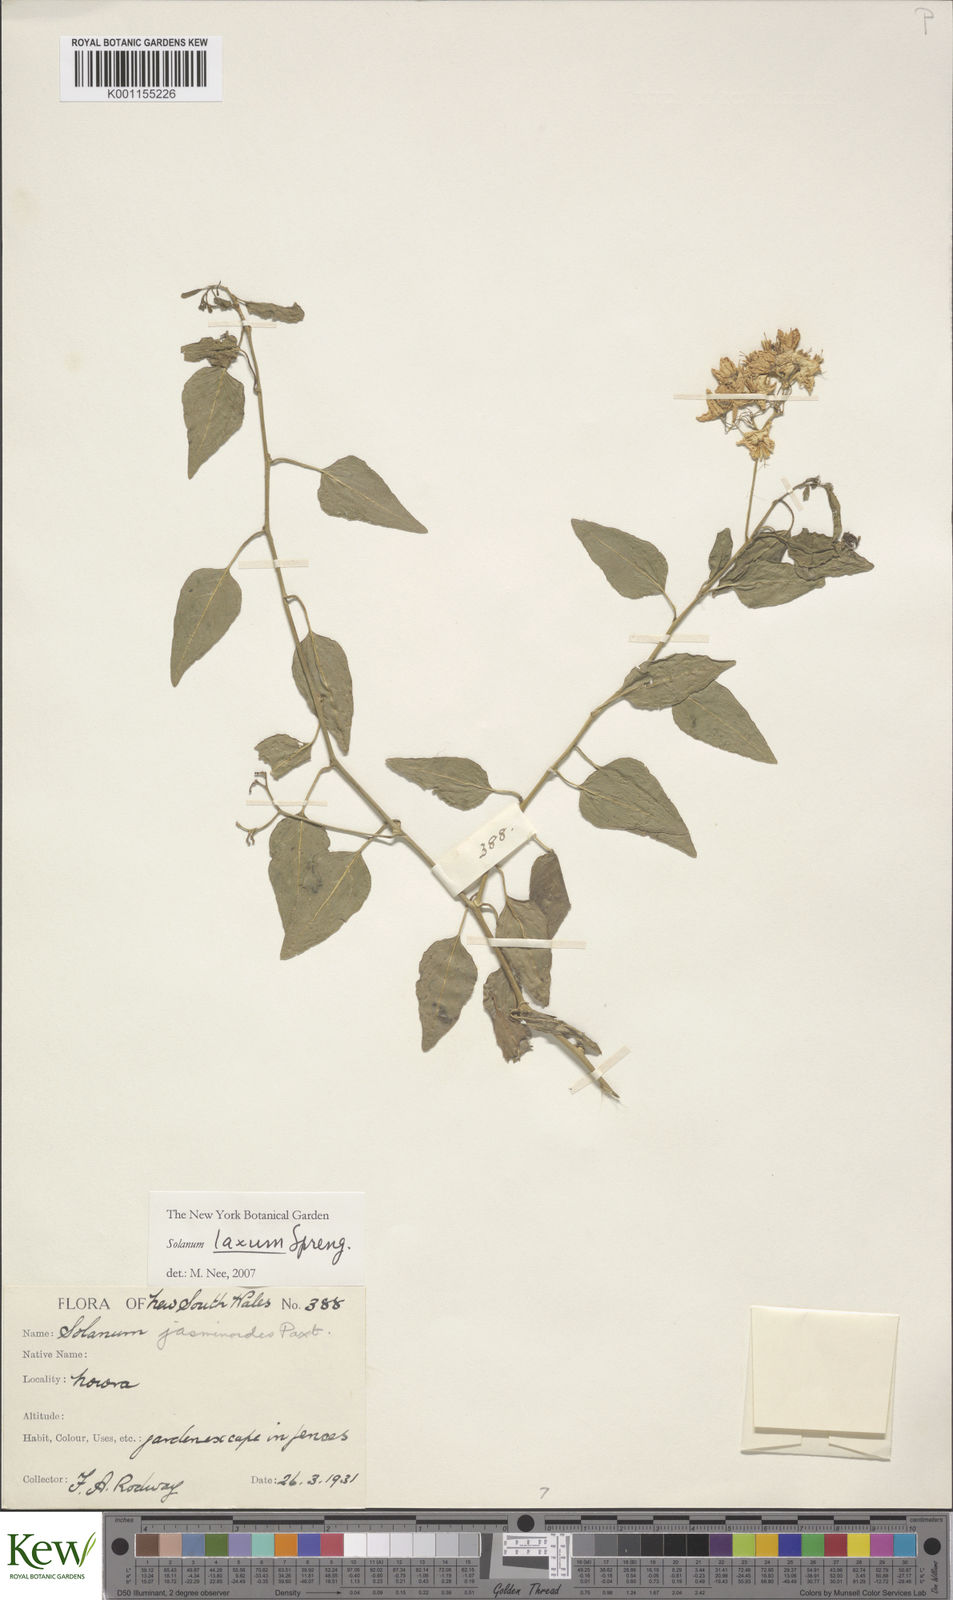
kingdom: Plantae
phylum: Tracheophyta
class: Magnoliopsida
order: Solanales
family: Solanaceae
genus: Solanum
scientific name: Solanum laxum
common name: Nightshade
